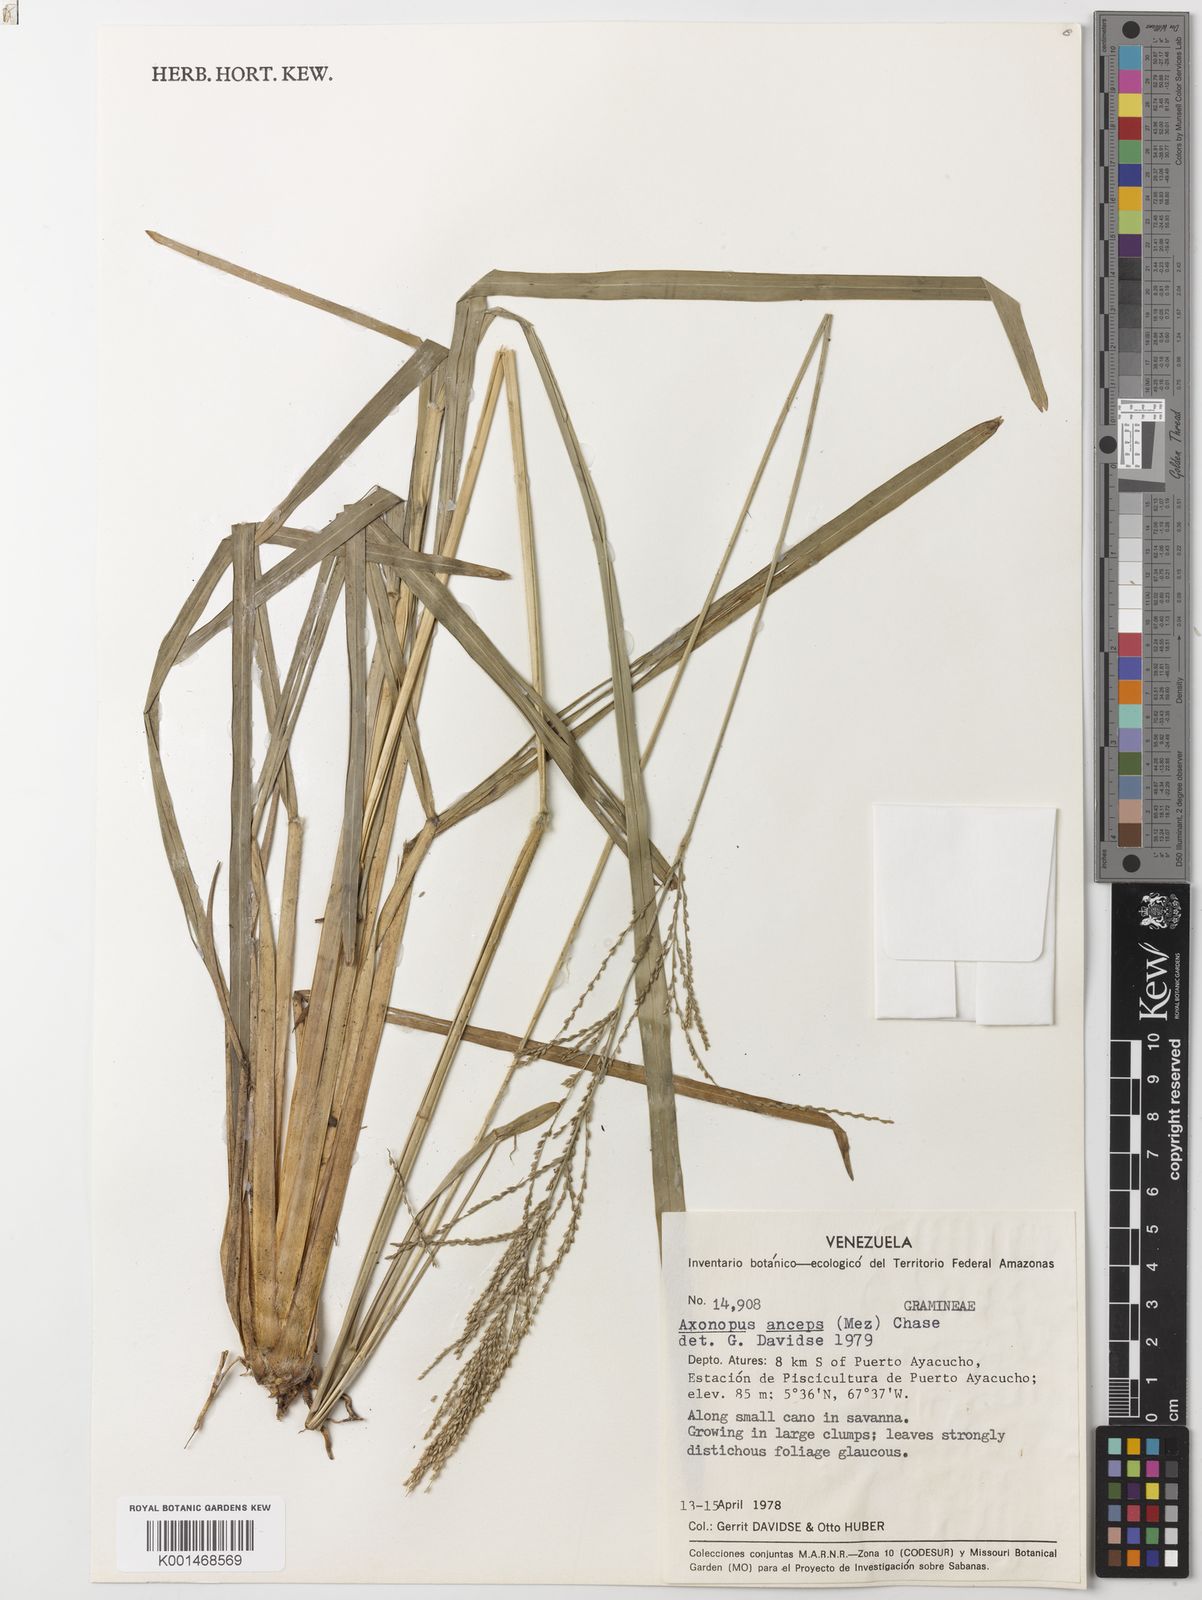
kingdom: Plantae
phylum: Tracheophyta
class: Liliopsida
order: Poales
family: Poaceae
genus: Axonopus
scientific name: Axonopus anceps
